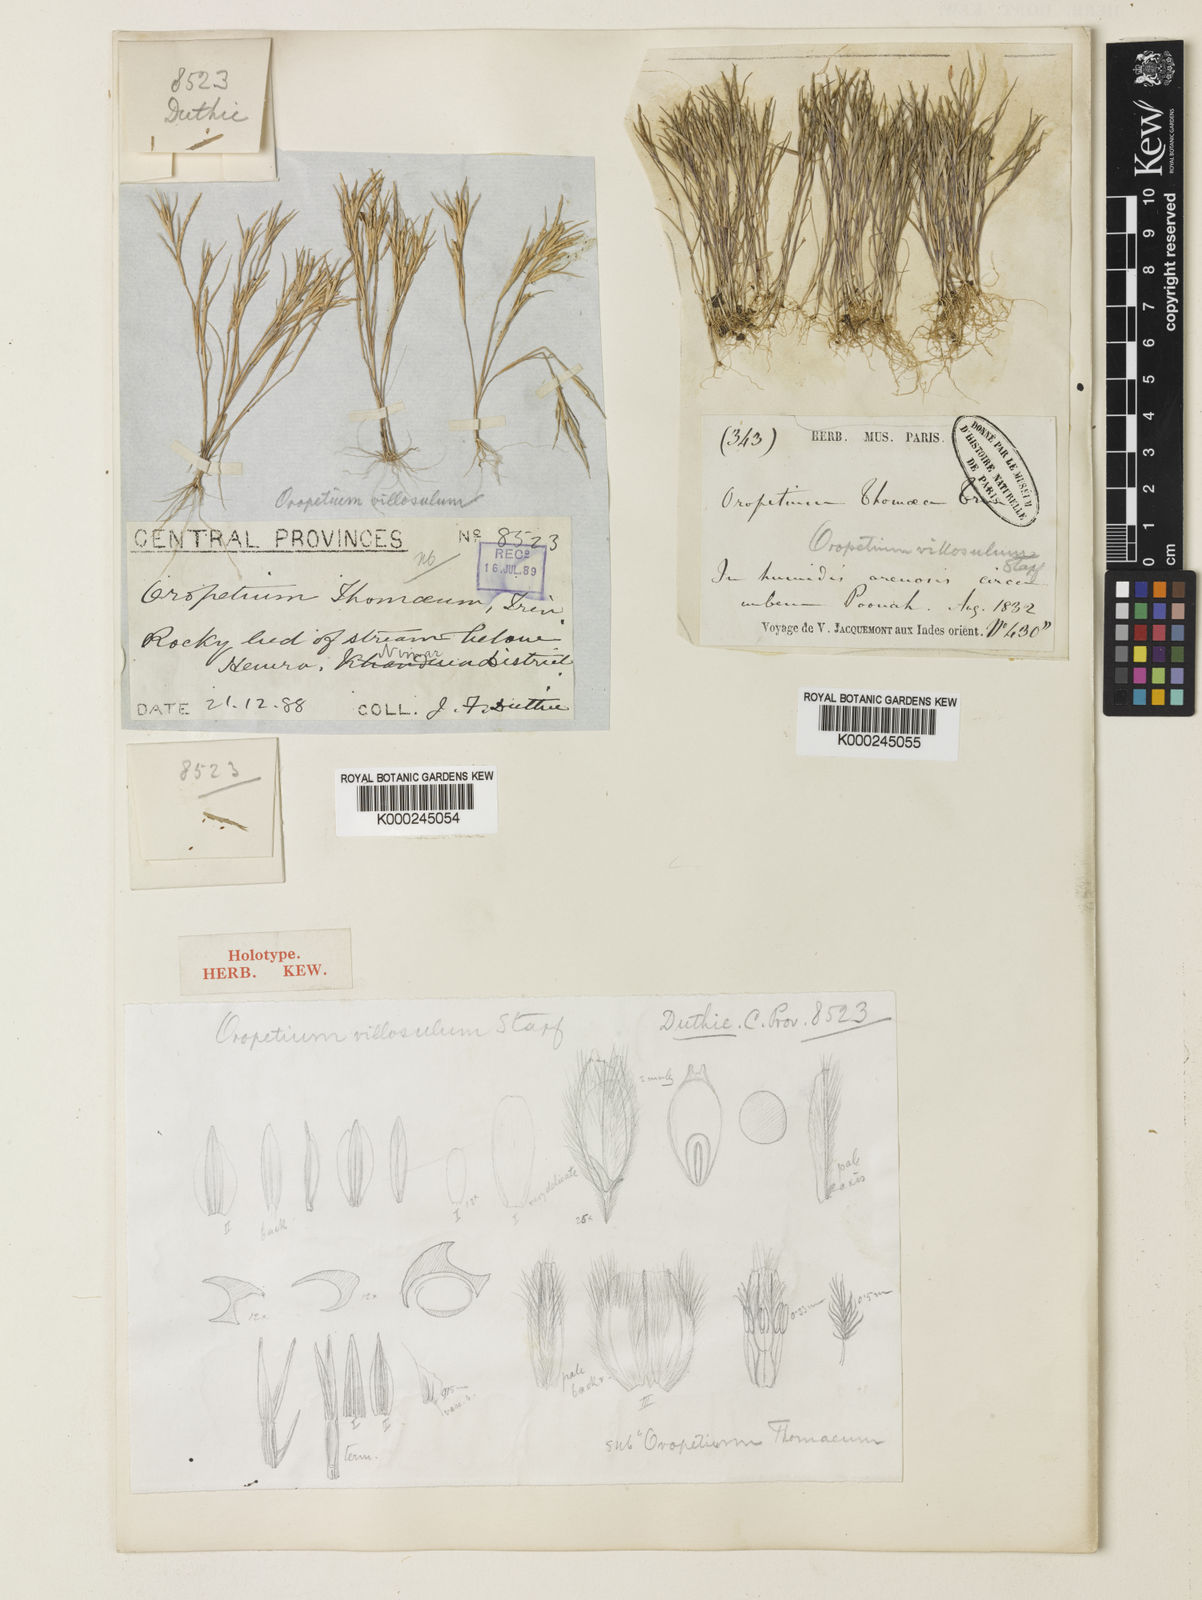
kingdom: Plantae
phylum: Tracheophyta
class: Liliopsida
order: Poales
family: Poaceae
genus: Oropetium
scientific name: Oropetium villosulum
